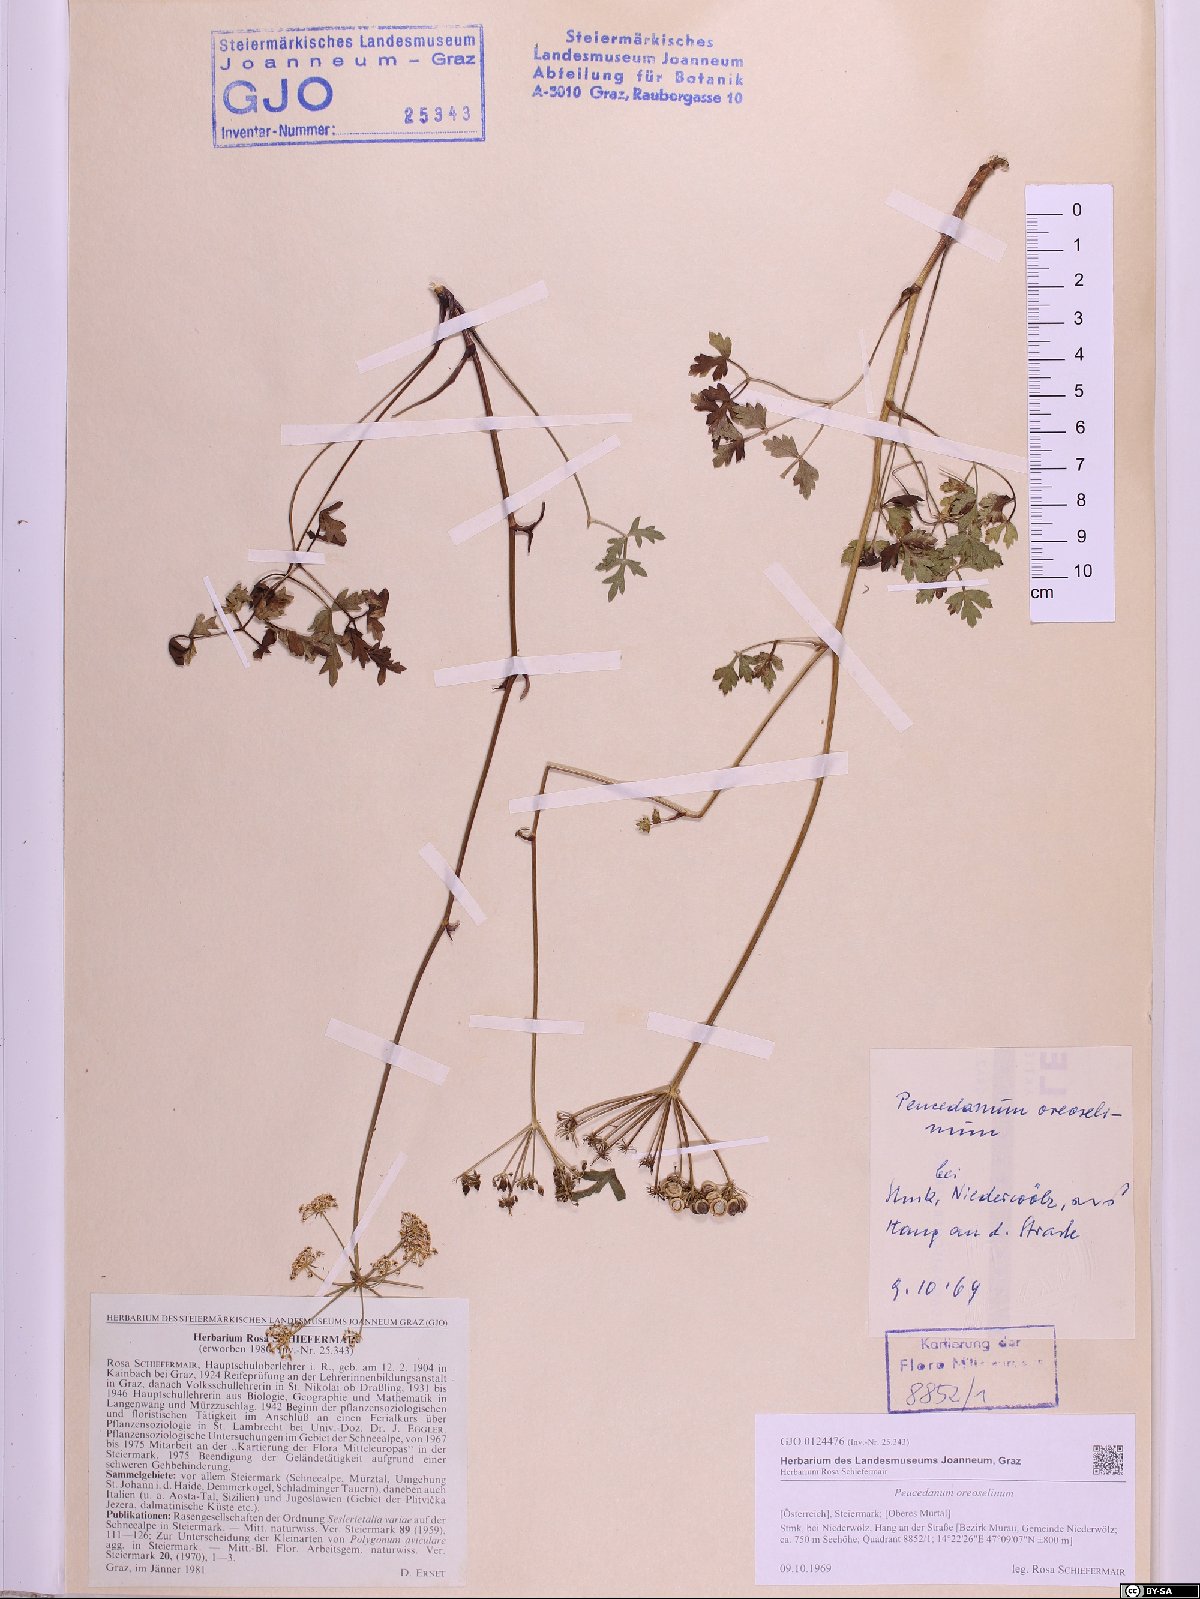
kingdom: Plantae
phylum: Tracheophyta
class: Magnoliopsida
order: Apiales
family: Apiaceae
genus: Oreoselinum
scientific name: Oreoselinum nigrum
